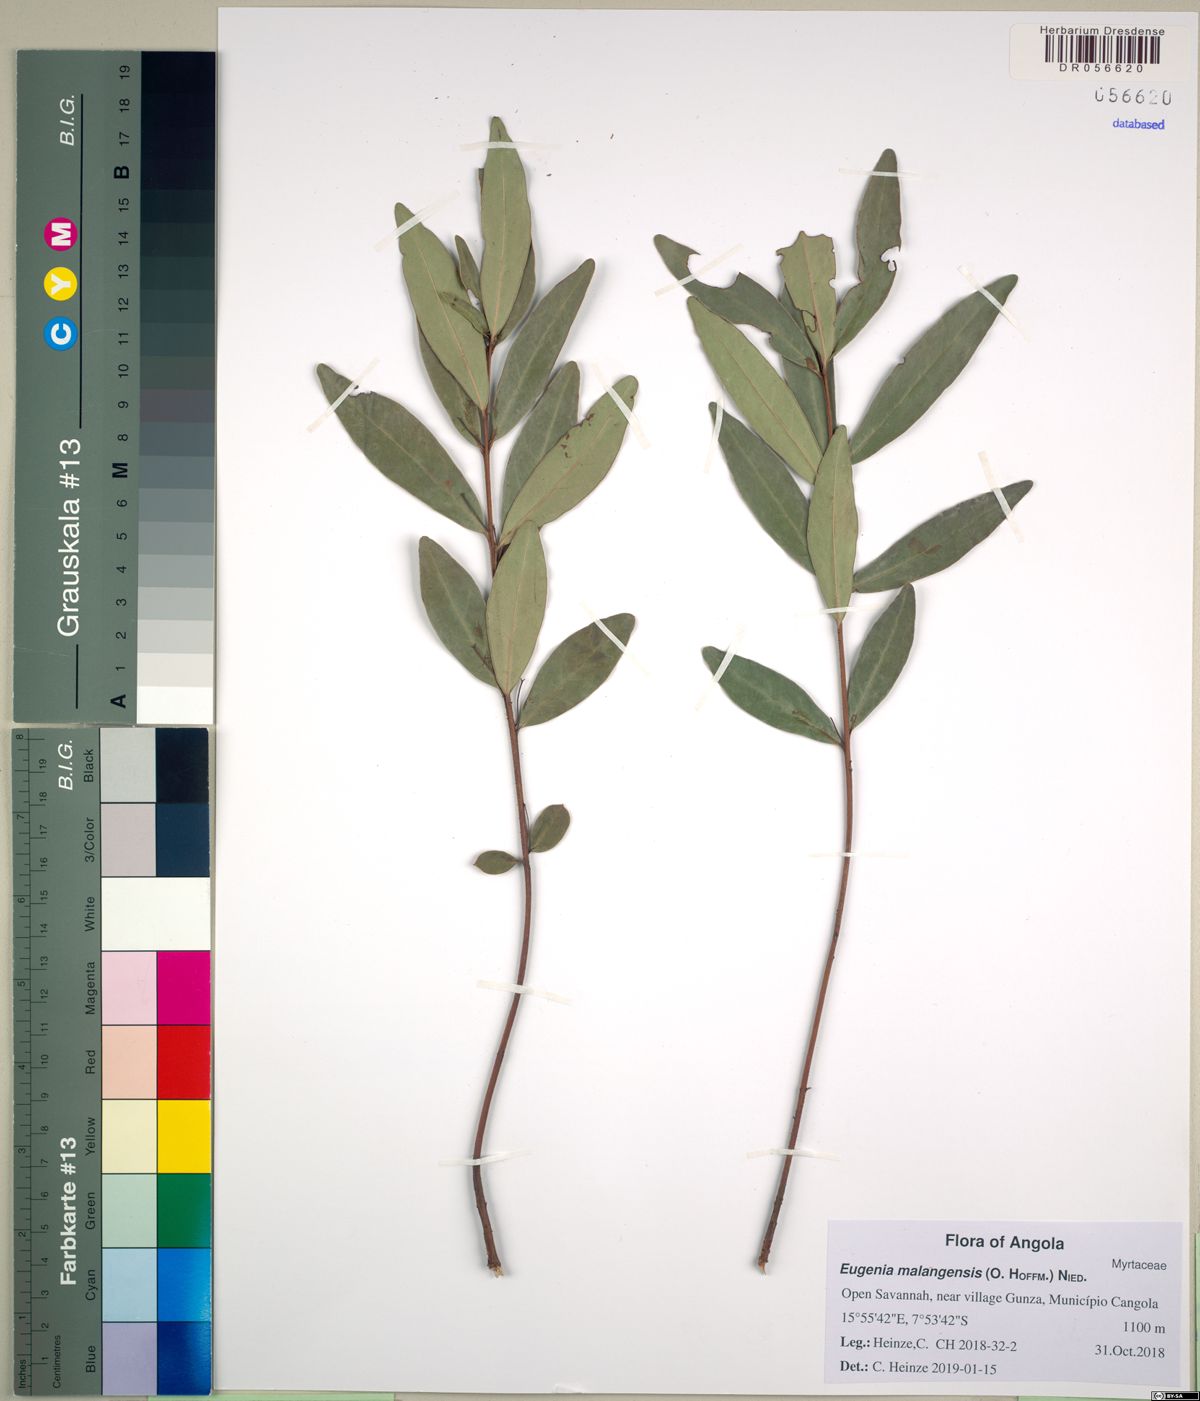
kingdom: Plantae
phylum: Tracheophyta
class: Magnoliopsida
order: Myrtales
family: Myrtaceae
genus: Eugenia
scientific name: Eugenia malangensis
